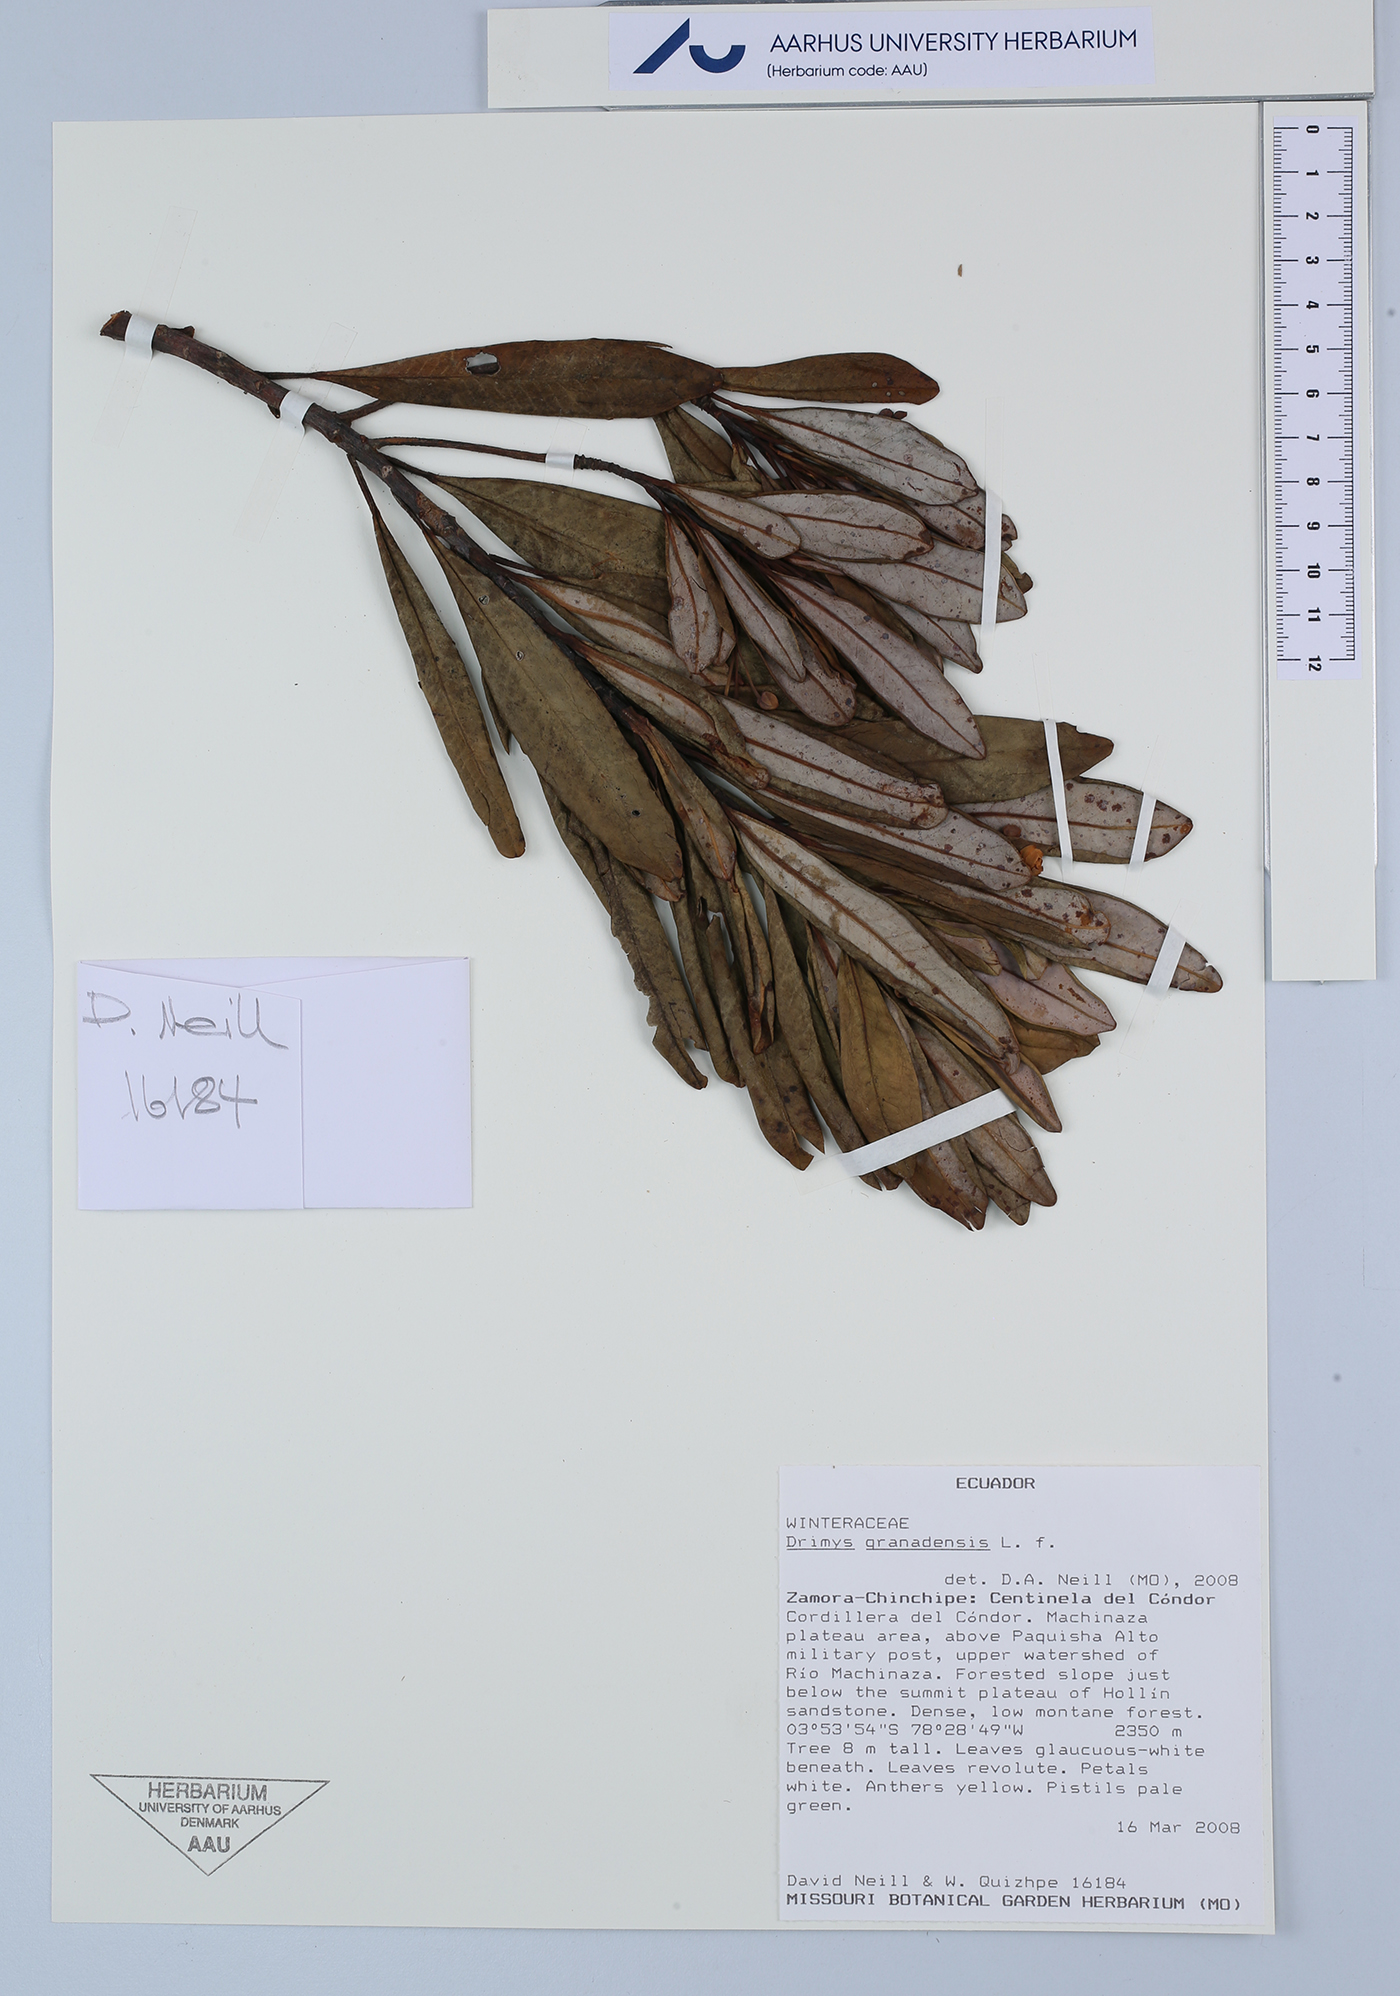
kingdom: Plantae
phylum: Tracheophyta
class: Magnoliopsida
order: Canellales
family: Winteraceae
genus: Drimys
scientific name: Drimys granadensis
